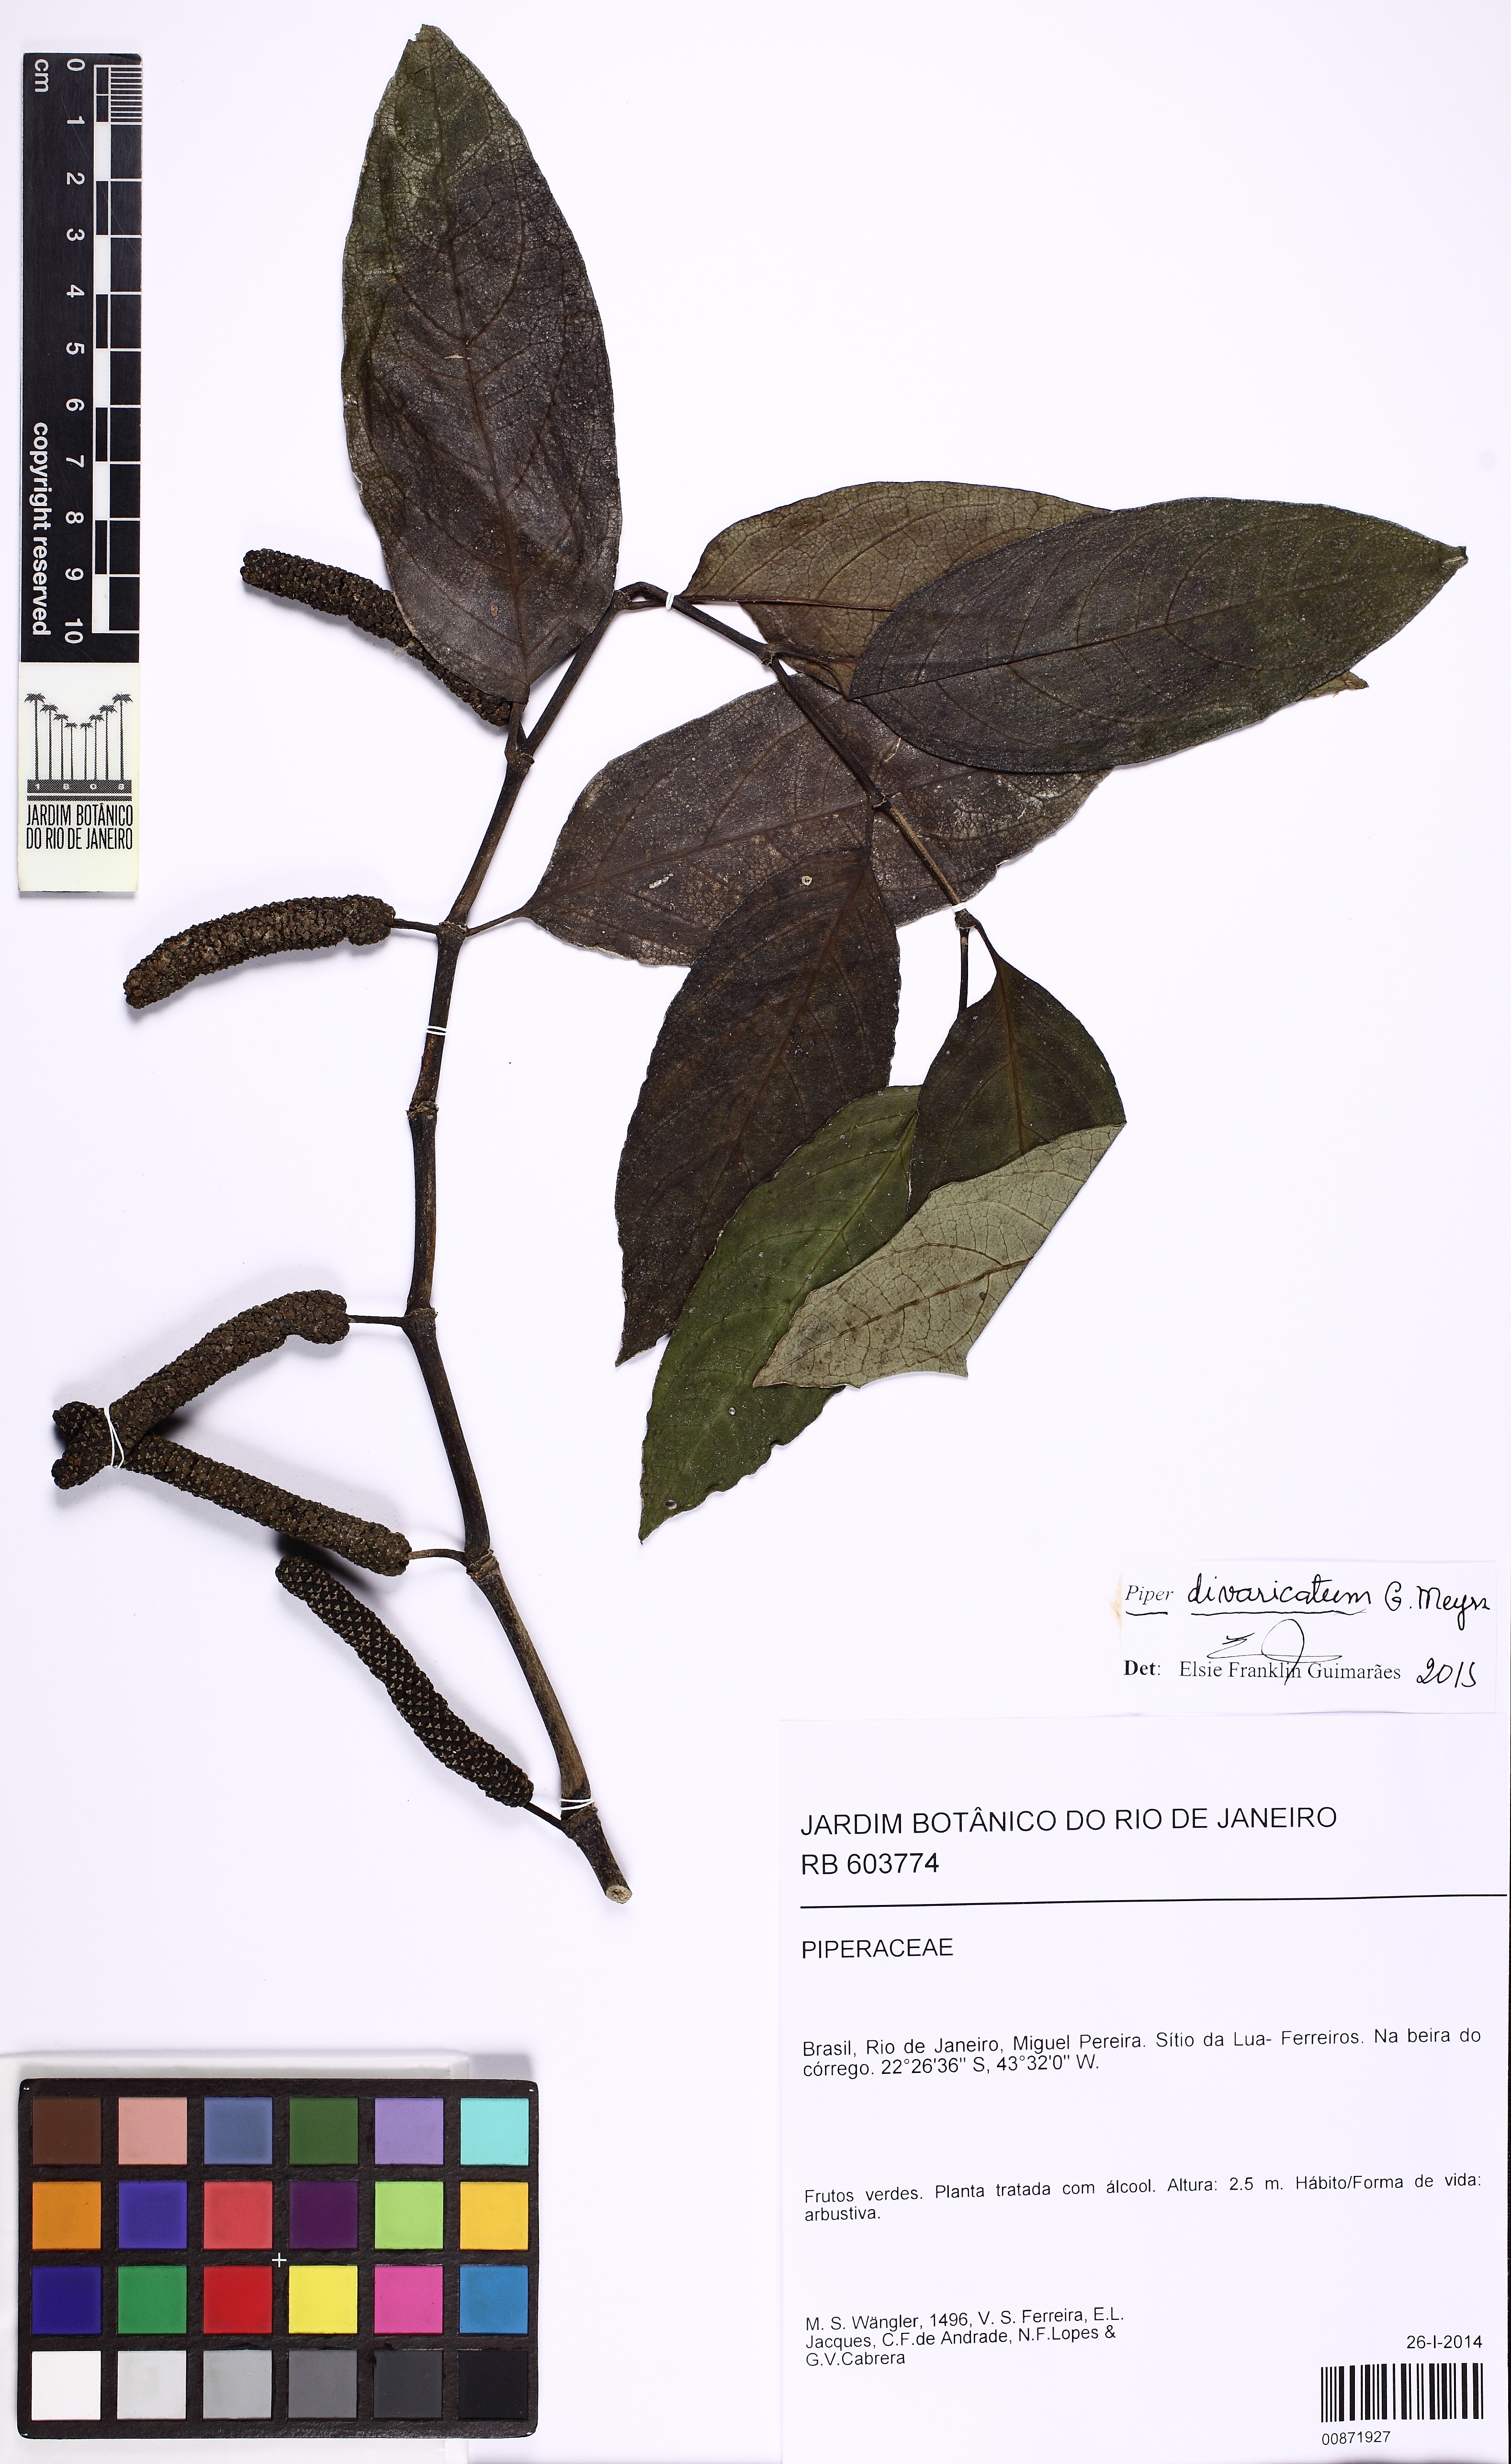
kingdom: Plantae
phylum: Tracheophyta
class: Magnoliopsida
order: Piperales
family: Piperaceae
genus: Piper
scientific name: Piper divaricatum
